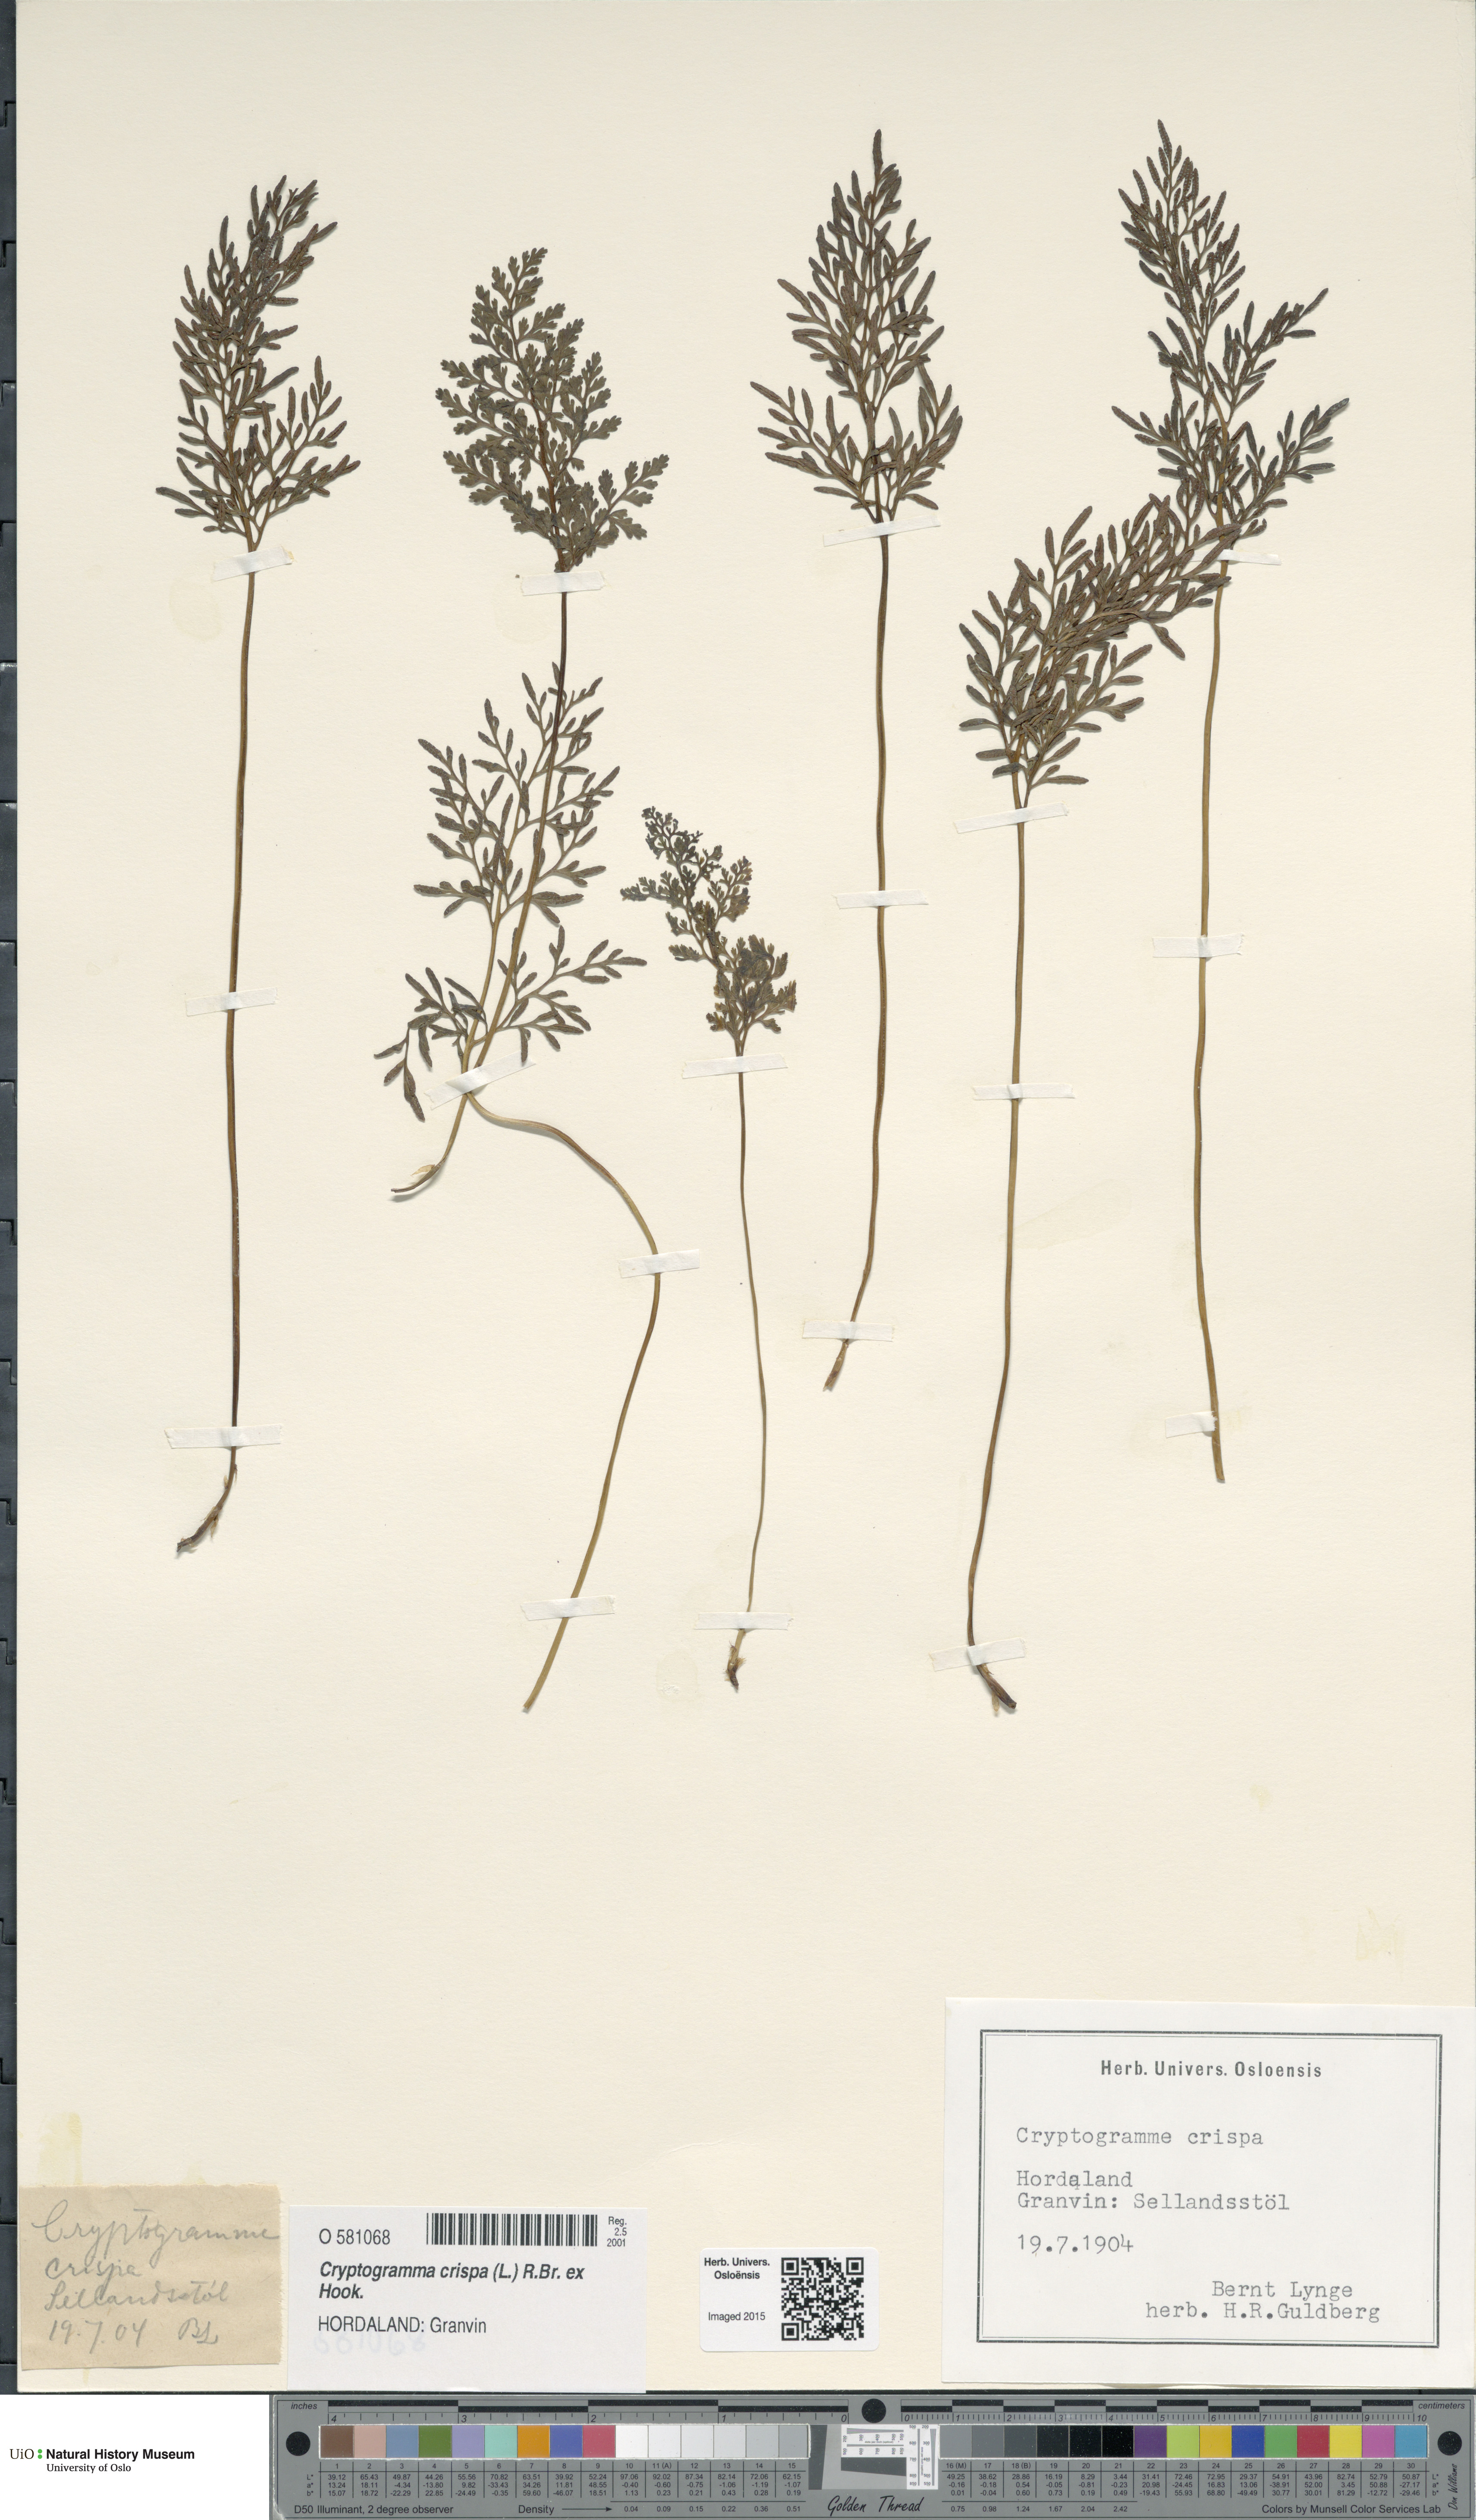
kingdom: Plantae
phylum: Tracheophyta
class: Polypodiopsida
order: Polypodiales
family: Pteridaceae
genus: Cryptogramma
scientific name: Cryptogramma crispa
